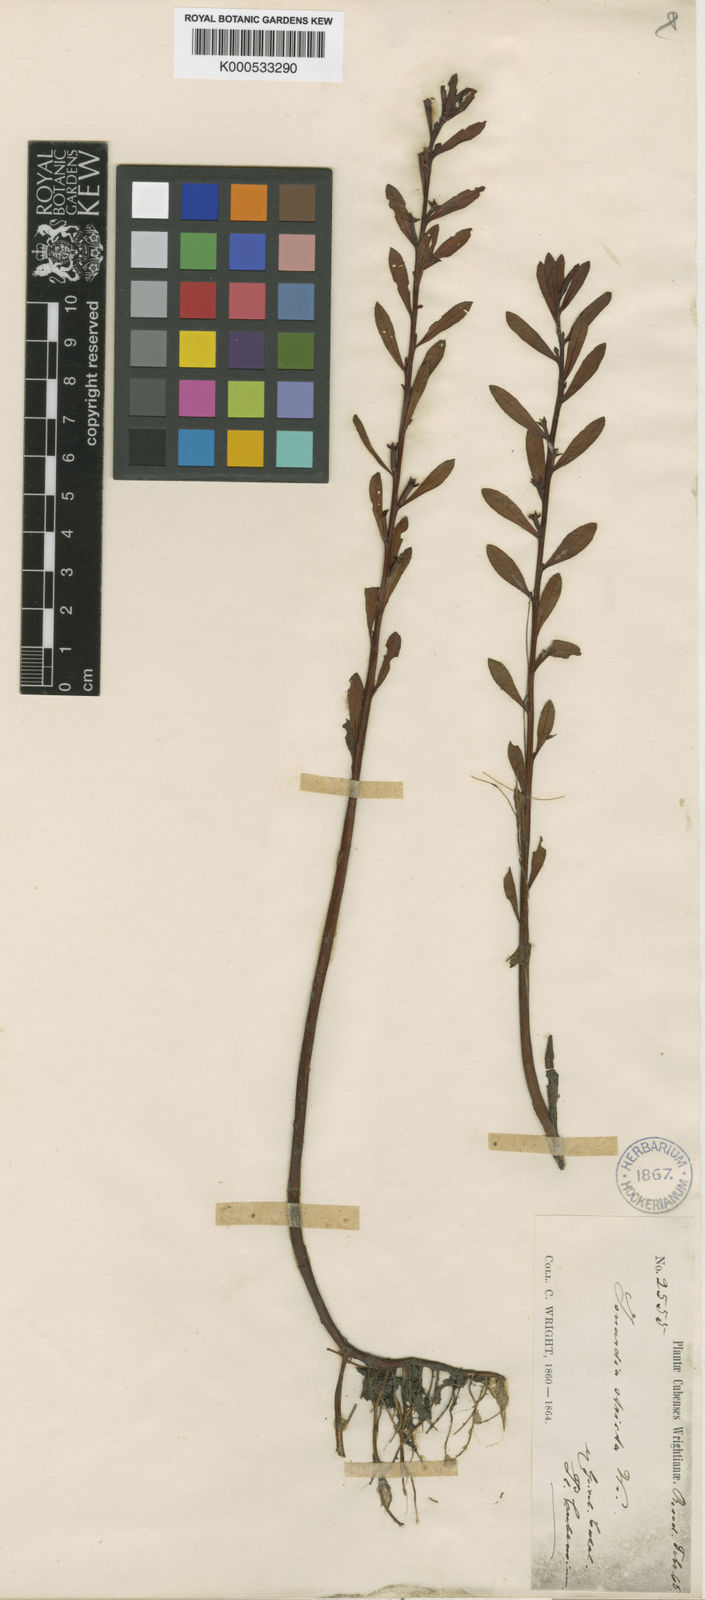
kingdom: Plantae
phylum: Tracheophyta
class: Magnoliopsida
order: Myrtales
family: Onagraceae
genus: Ludwigia
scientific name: Ludwigia
